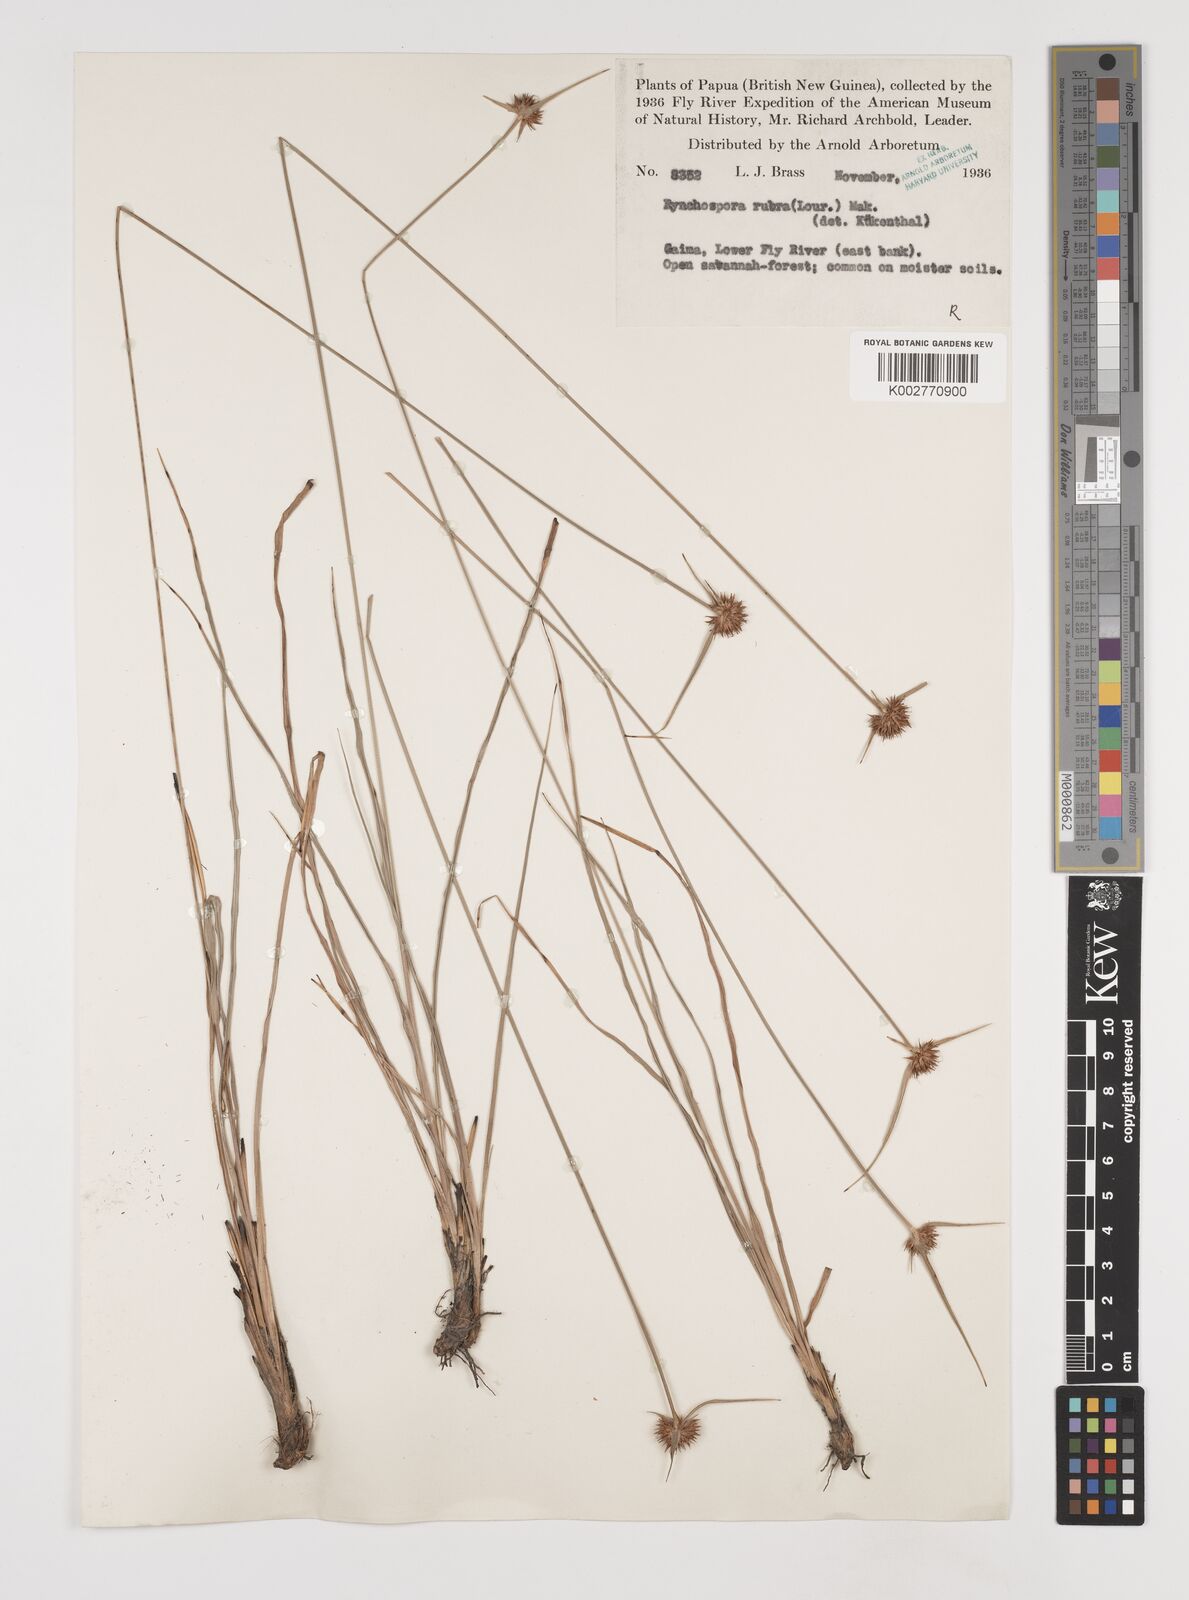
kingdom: Plantae
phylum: Tracheophyta
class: Liliopsida
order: Poales
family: Cyperaceae
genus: Rhynchospora
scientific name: Rhynchospora rubra
